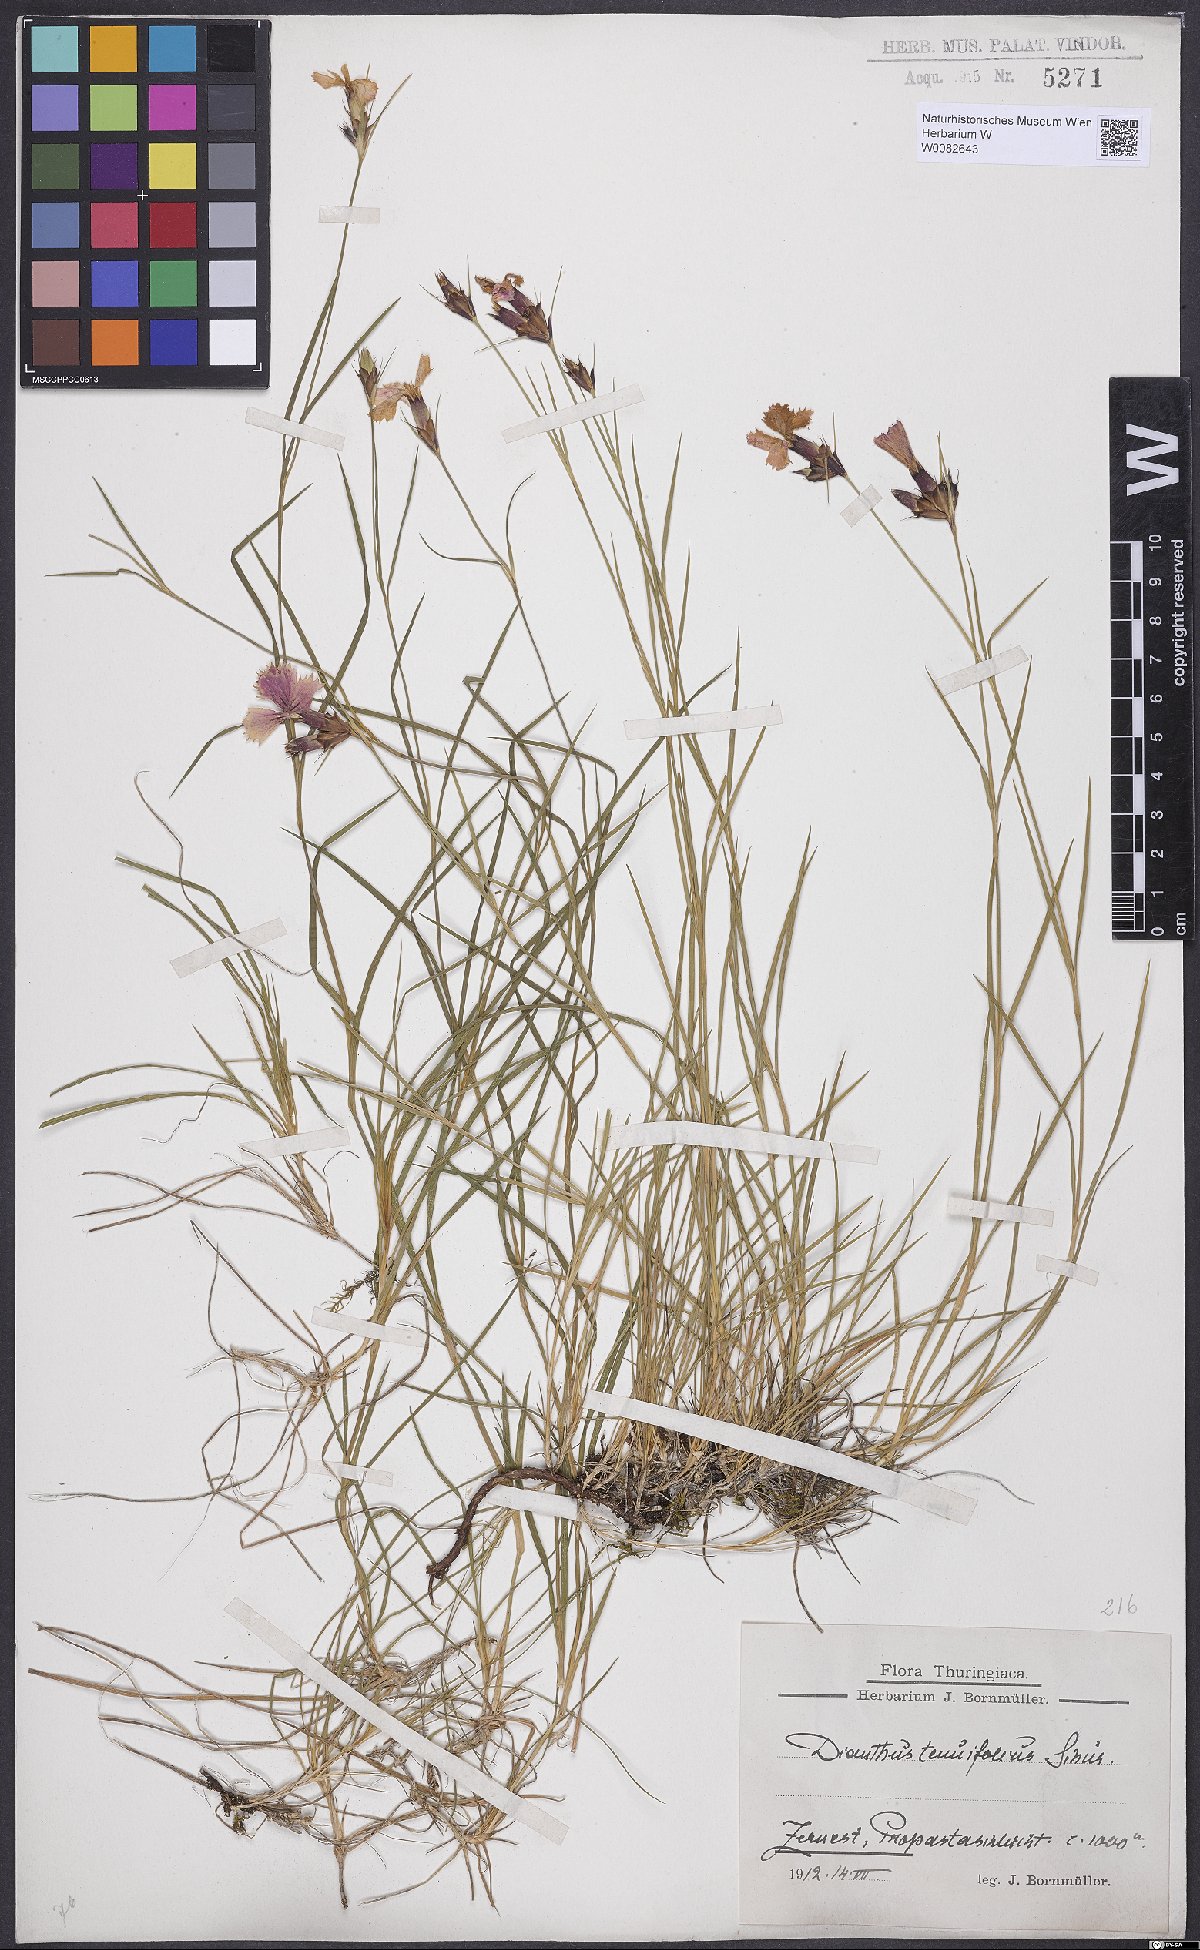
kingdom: Plantae
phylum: Tracheophyta
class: Magnoliopsida
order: Caryophyllales
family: Caryophyllaceae
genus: Dianthus
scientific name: Dianthus carthusianorum
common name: Carthusian pink
